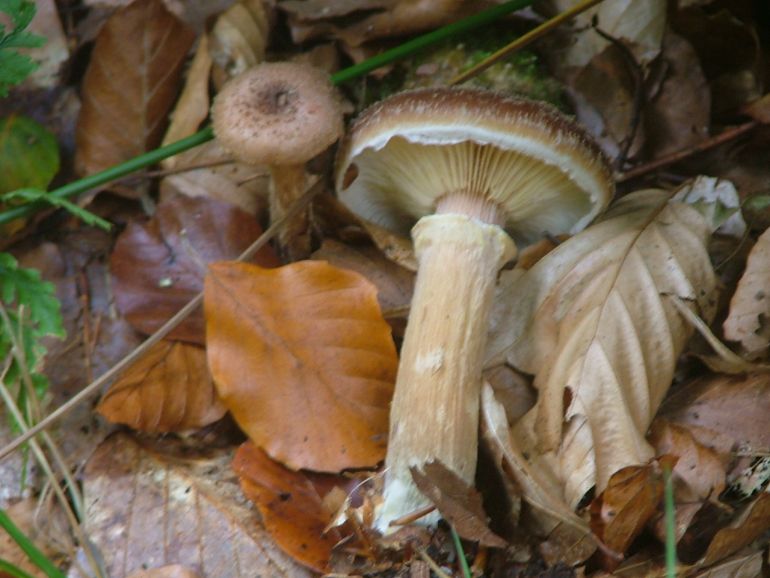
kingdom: Fungi
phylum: Basidiomycota
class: Agaricomycetes
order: Agaricales
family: Physalacriaceae
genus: Armillaria
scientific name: Armillaria lutea
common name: køllestokket honningsvamp
